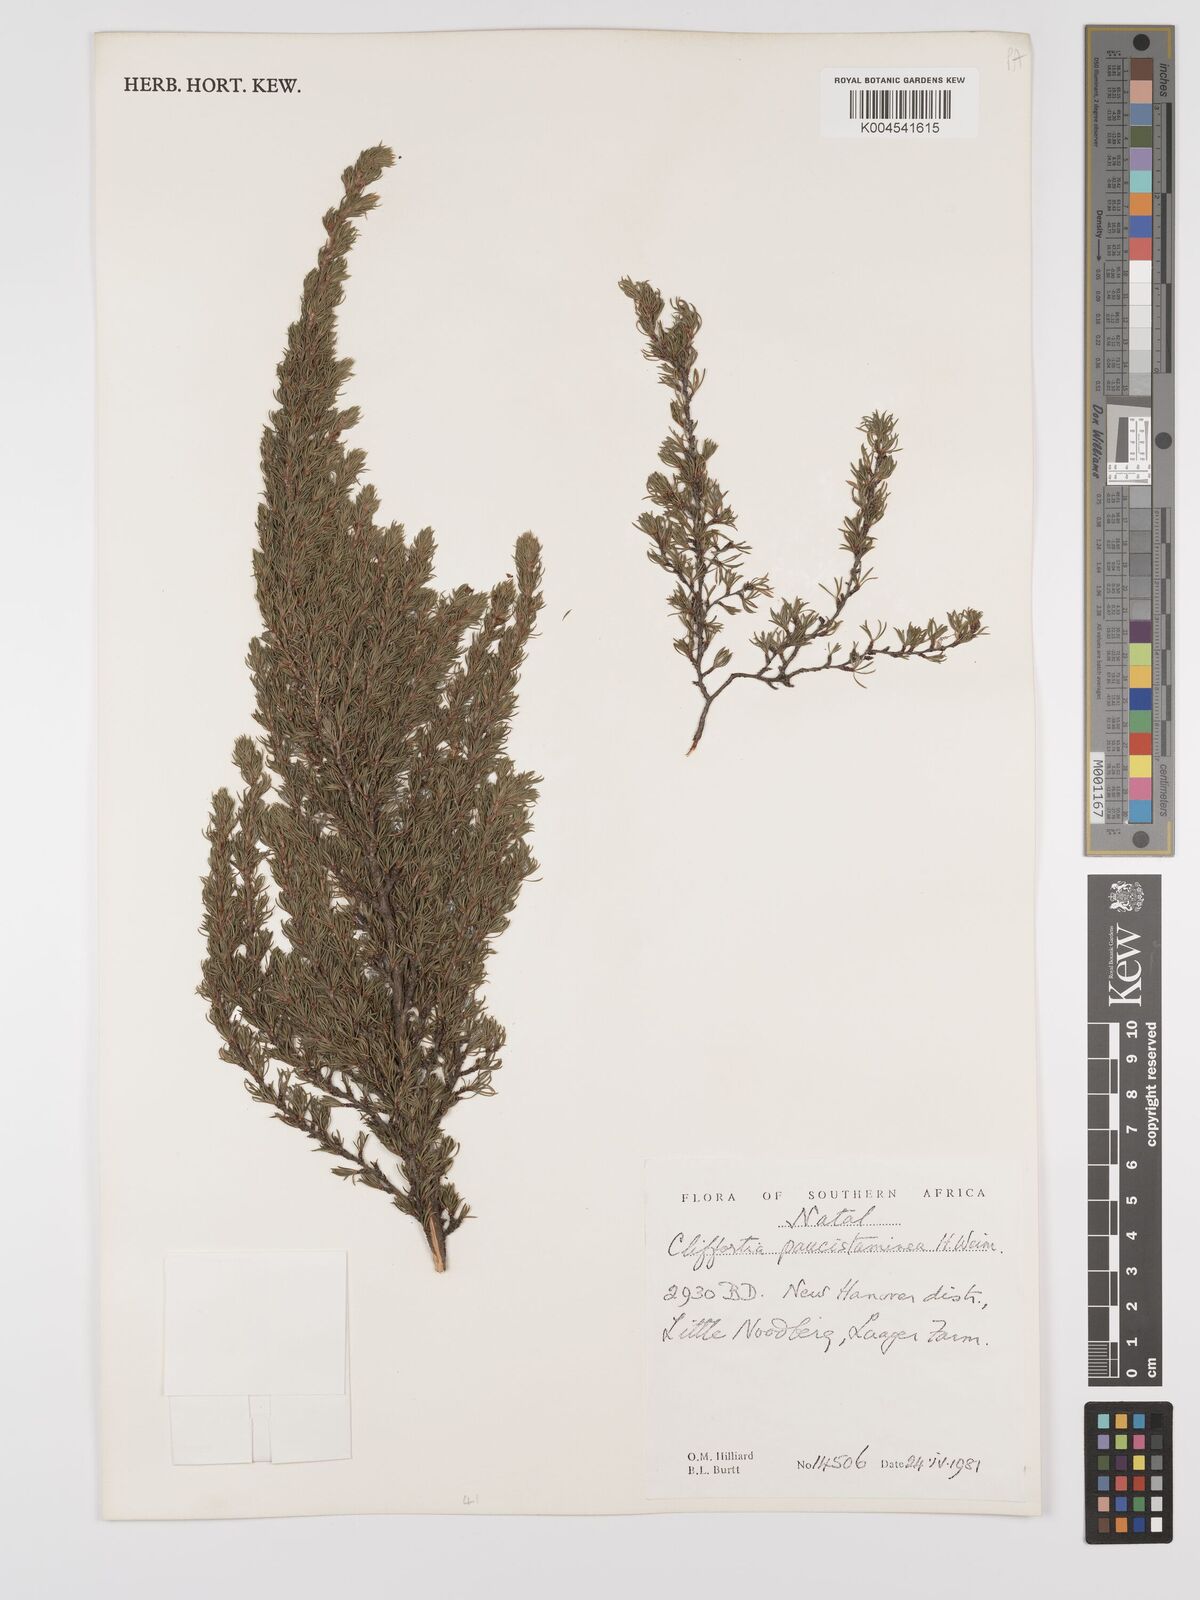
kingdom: Plantae
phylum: Tracheophyta
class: Magnoliopsida
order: Rosales
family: Rosaceae
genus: Cliffortia
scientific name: Cliffortia paucistaminea
